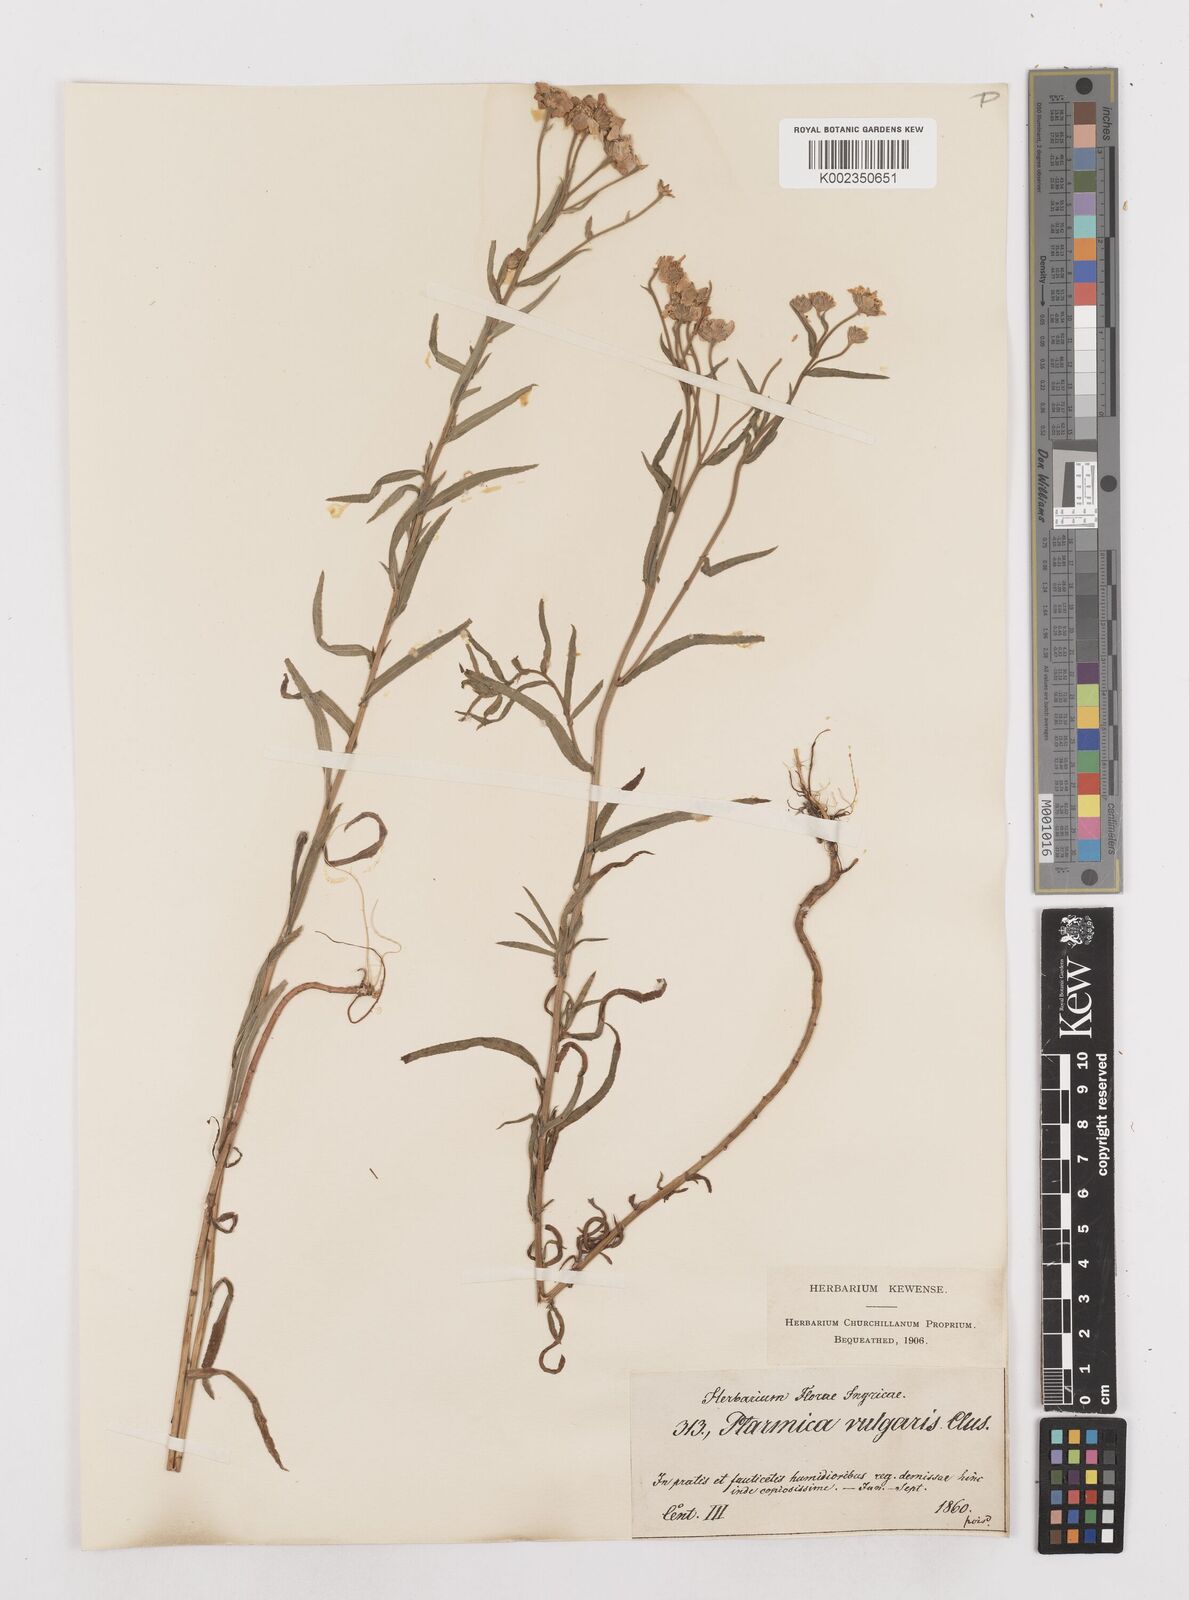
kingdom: Plantae
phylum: Tracheophyta
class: Magnoliopsida
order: Asterales
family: Asteraceae
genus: Achillea
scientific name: Achillea ptarmica
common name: Sneezeweed
